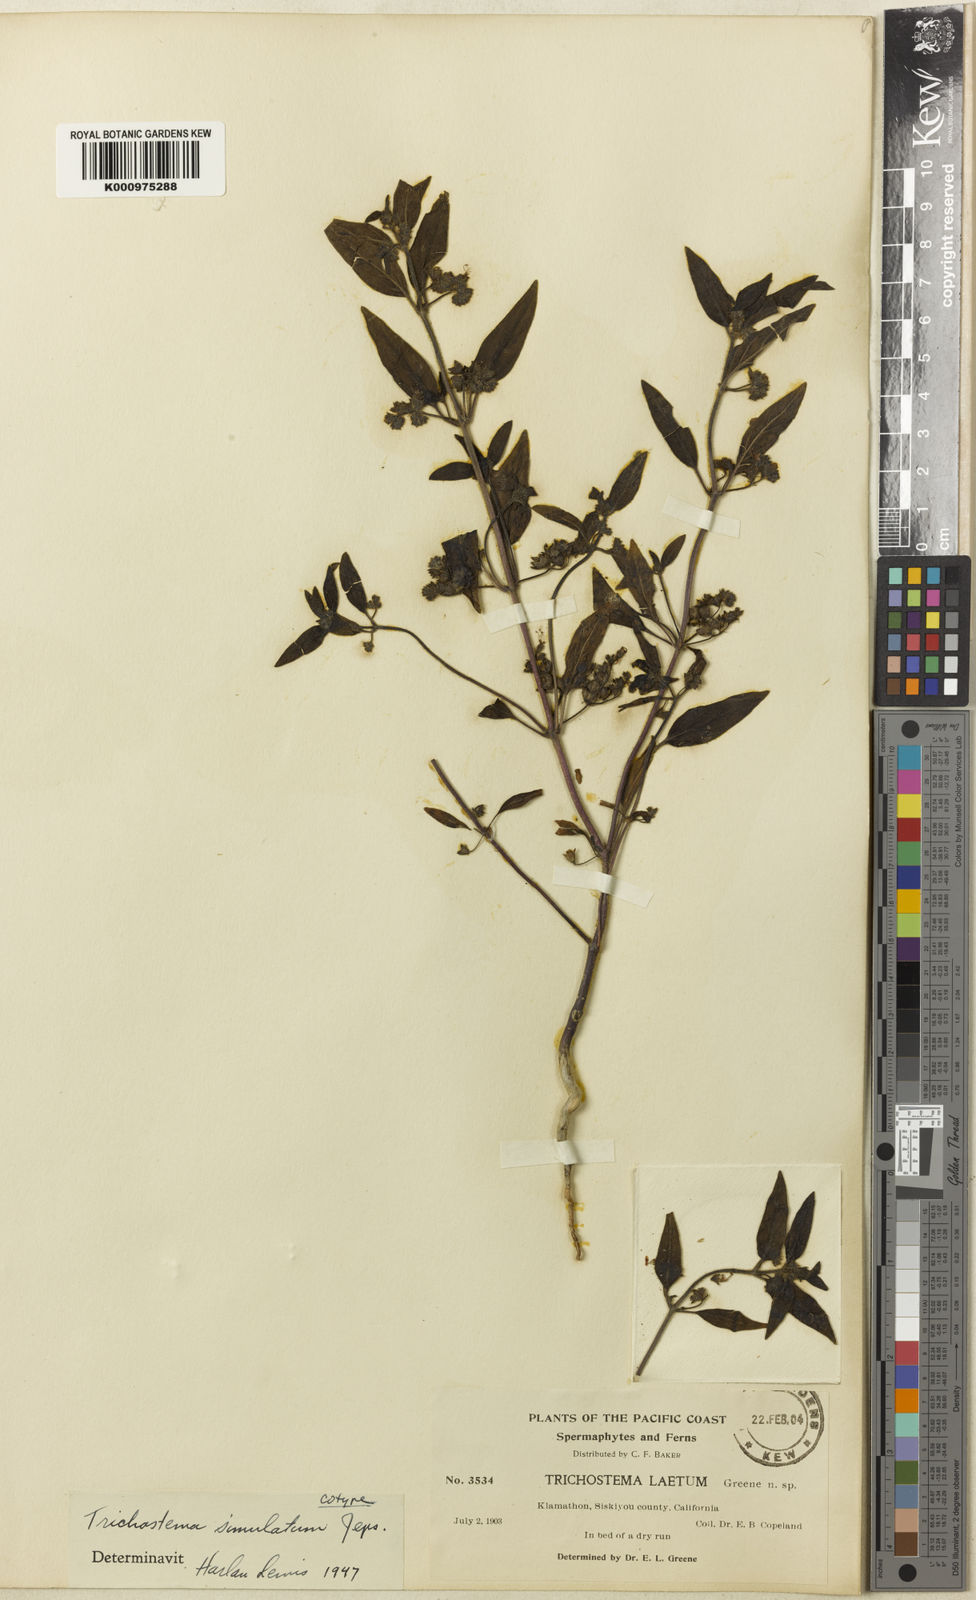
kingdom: Plantae
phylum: Tracheophyta
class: Magnoliopsida
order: Lamiales
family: Lamiaceae
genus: Trichostema
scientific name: Trichostema simulatum
